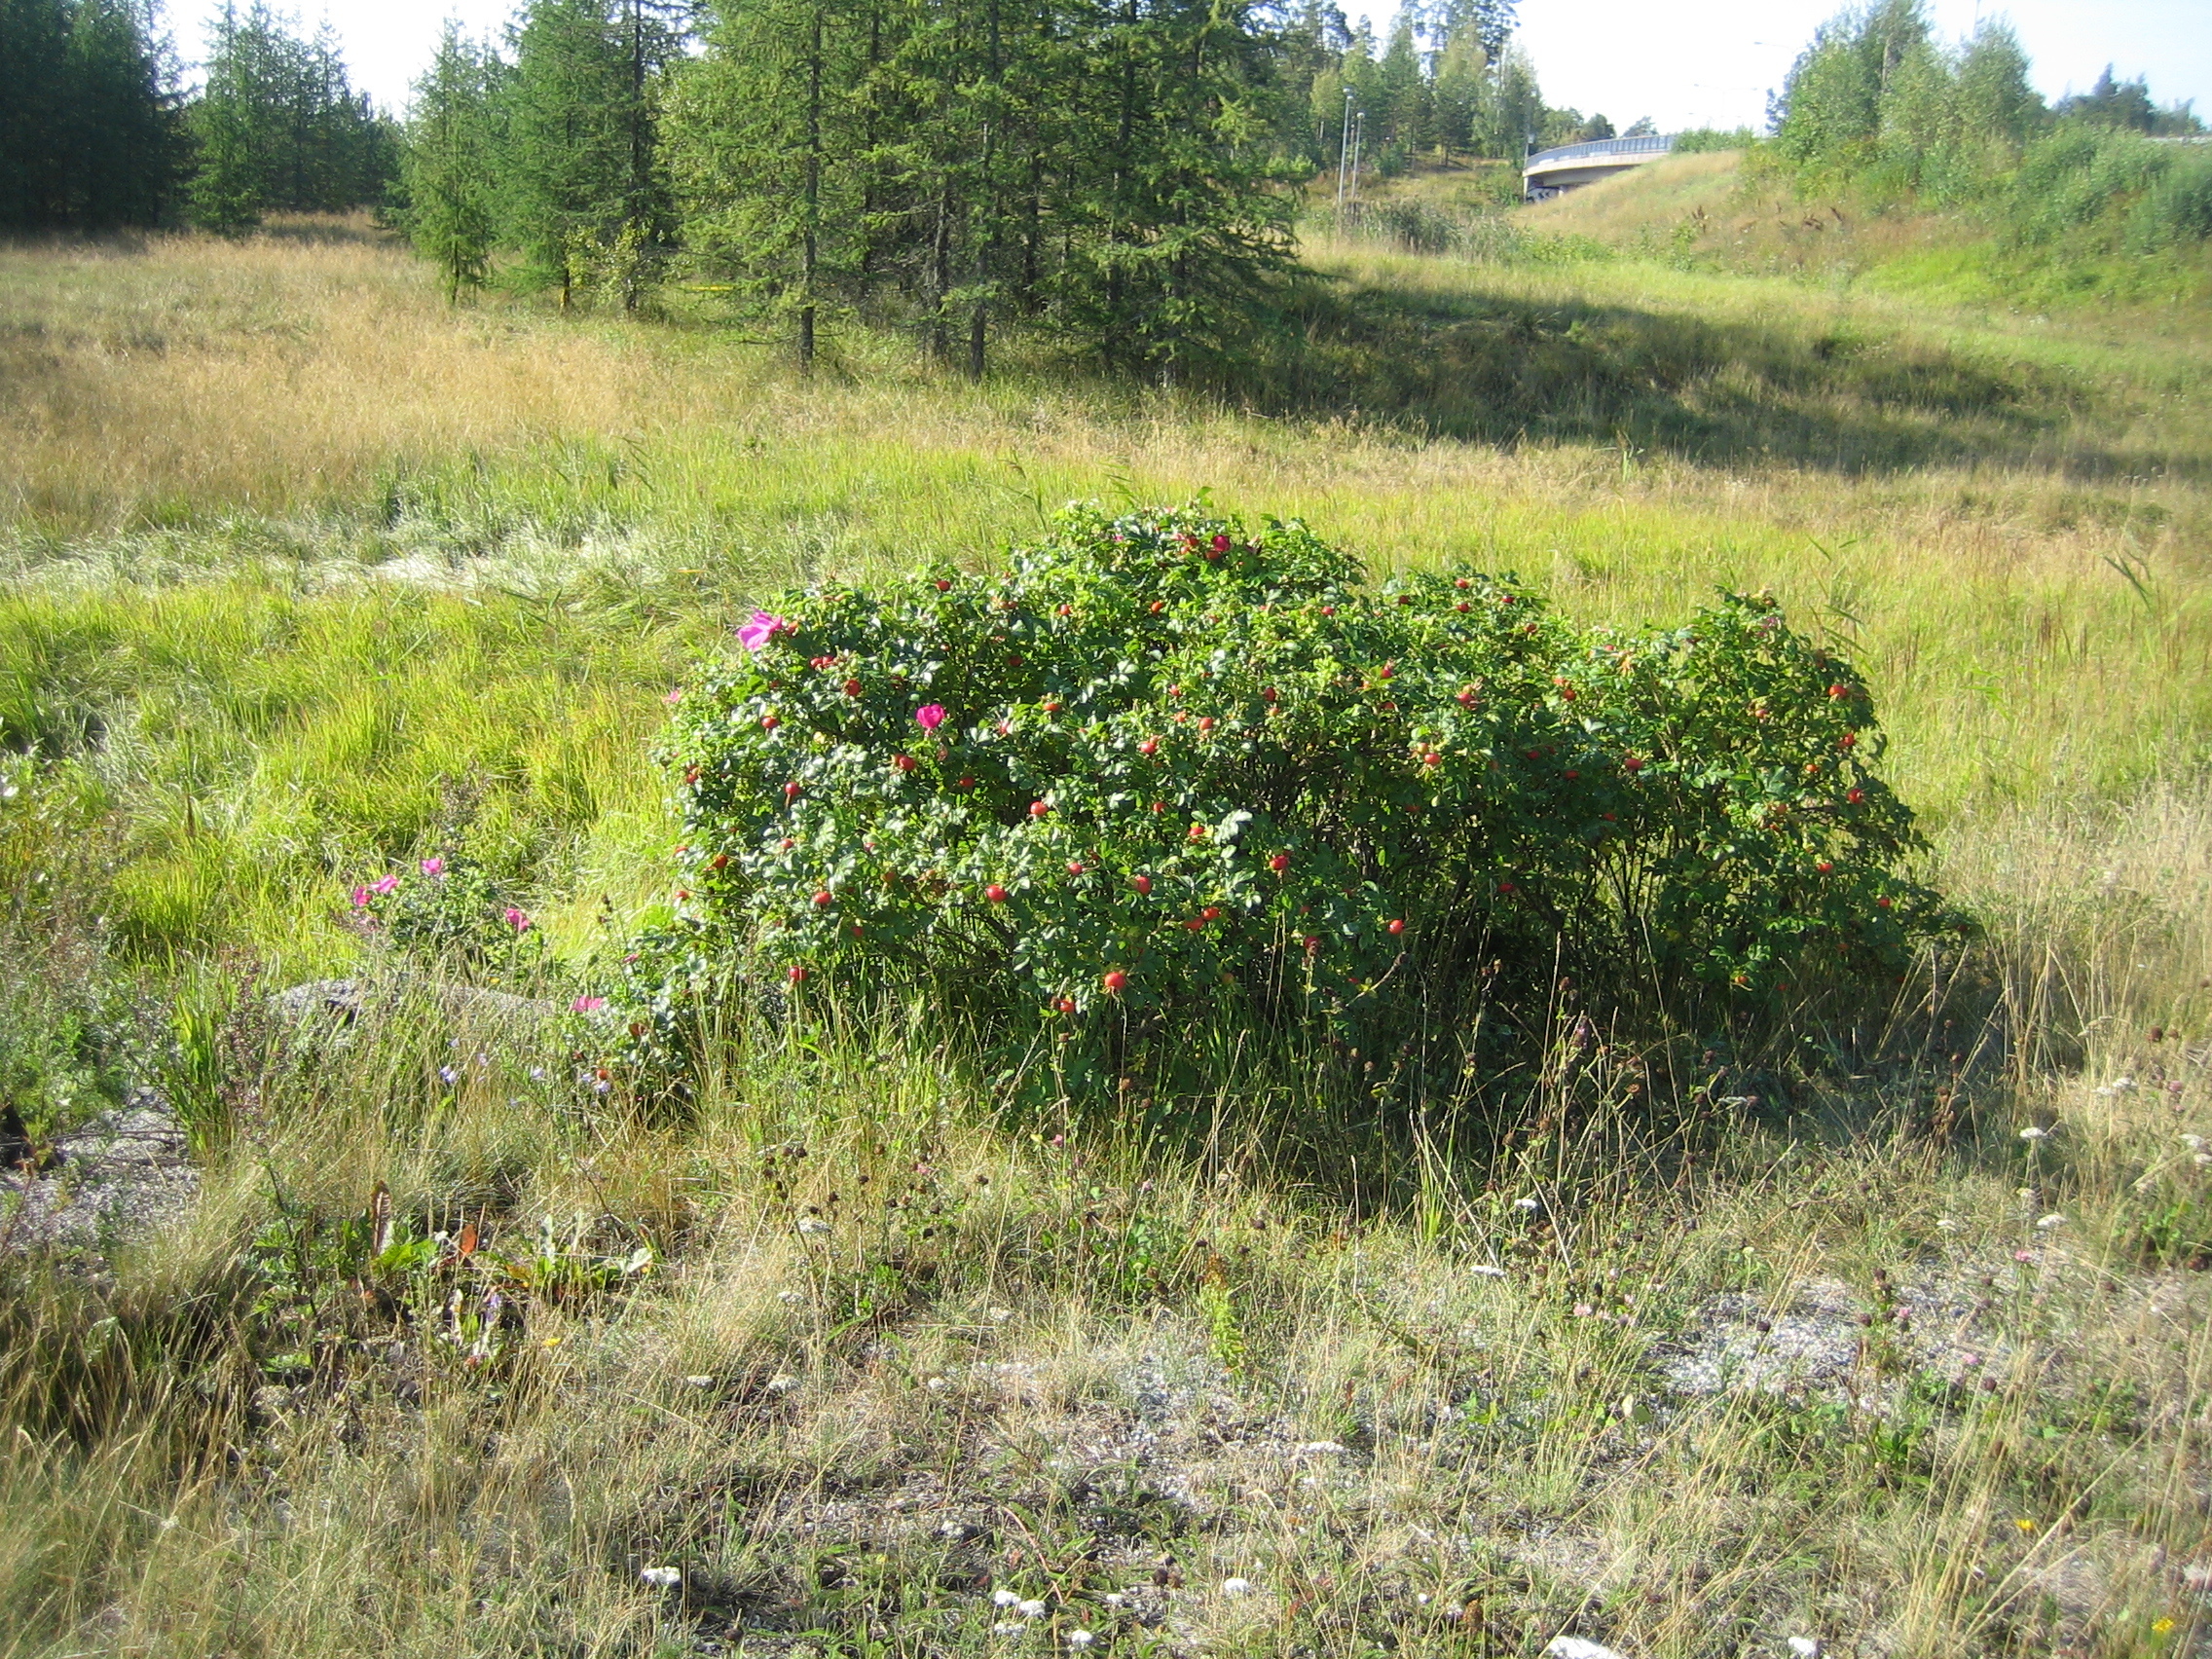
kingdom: Plantae
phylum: Tracheophyta
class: Magnoliopsida
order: Rosales
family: Rosaceae
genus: Rosa
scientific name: Rosa rugosa
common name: Japanese rose
